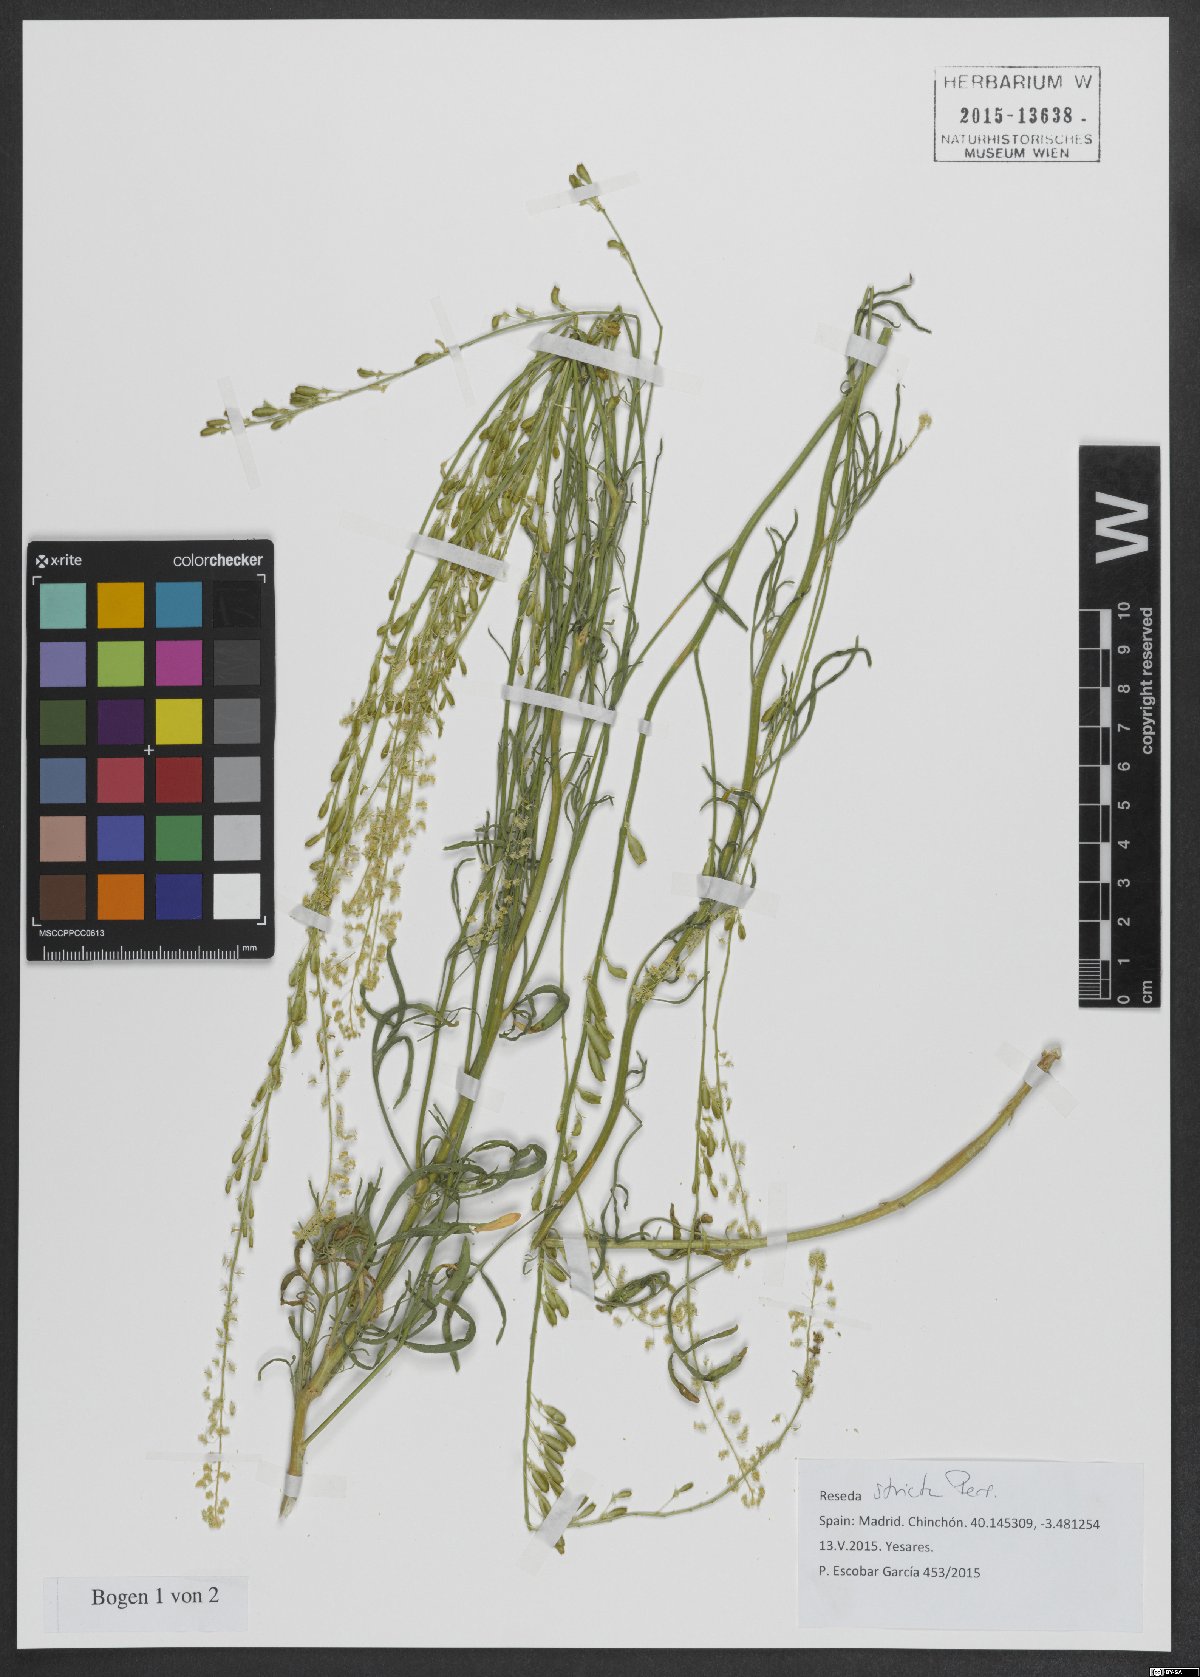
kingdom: Plantae
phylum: Tracheophyta
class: Magnoliopsida
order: Brassicales
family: Resedaceae
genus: Reseda
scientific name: Reseda stricta
